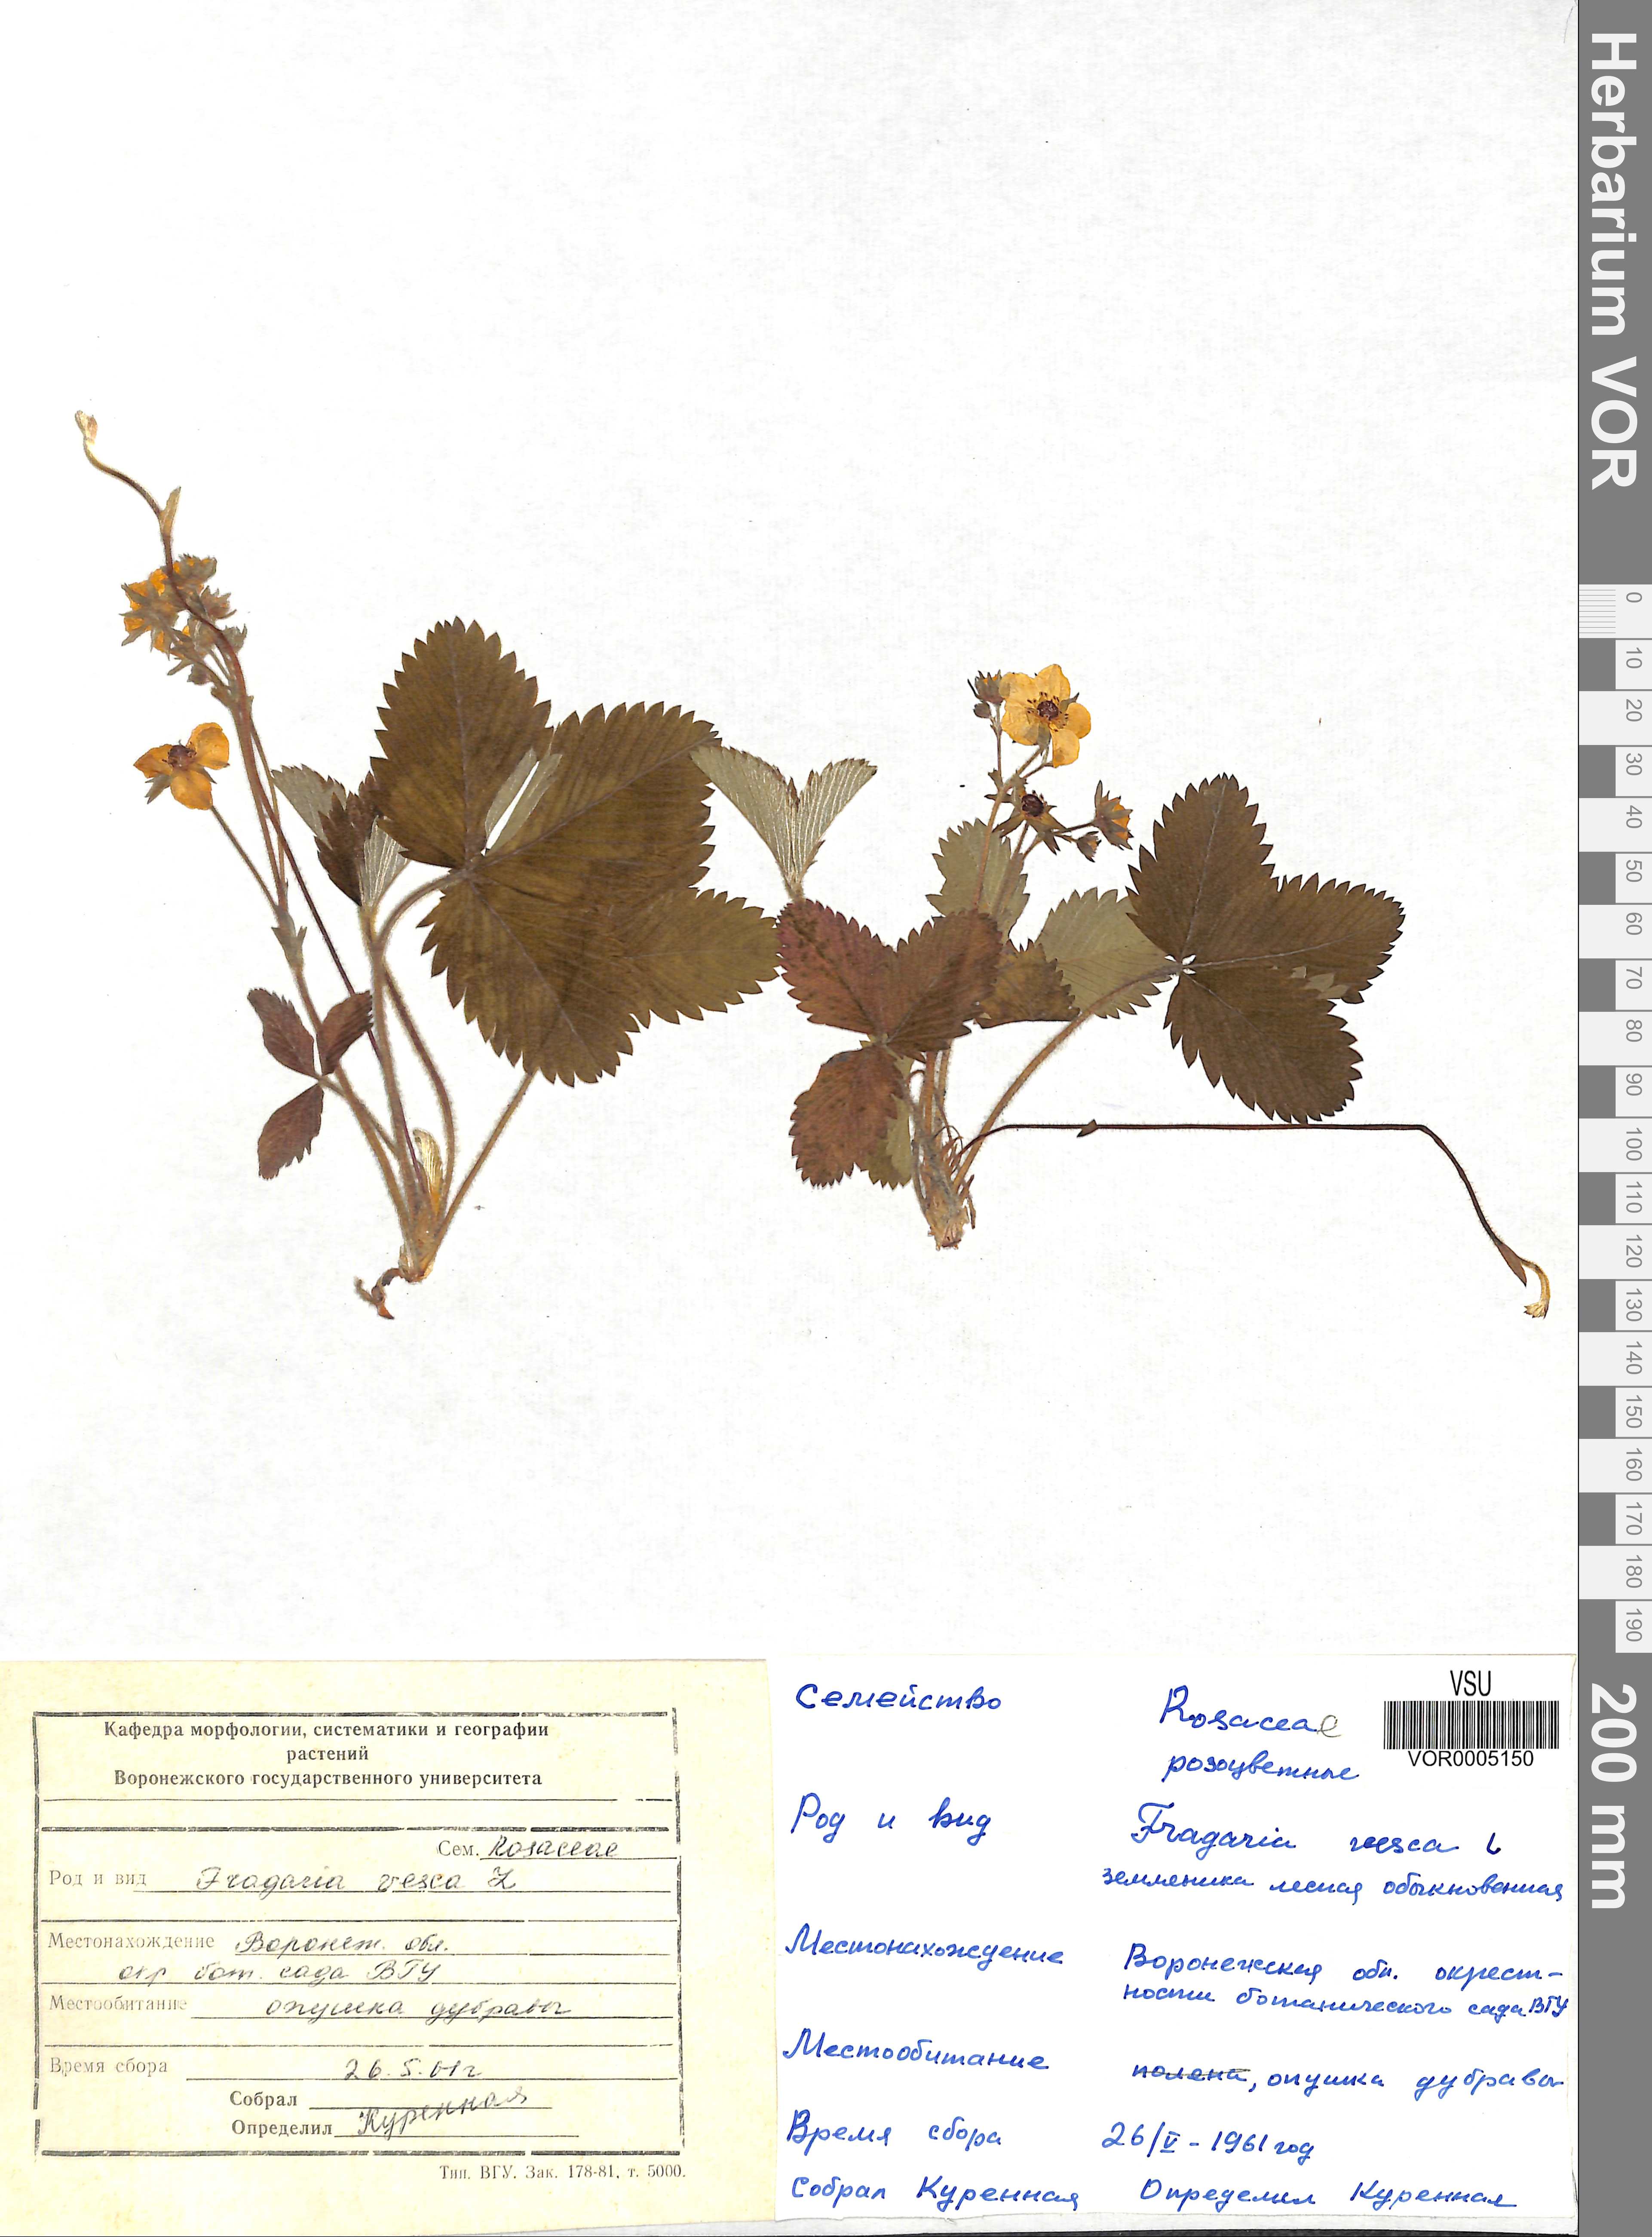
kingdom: Plantae
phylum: Tracheophyta
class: Magnoliopsida
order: Rosales
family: Rosaceae
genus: Fragaria
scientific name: Fragaria vesca
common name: Wild strawberry
